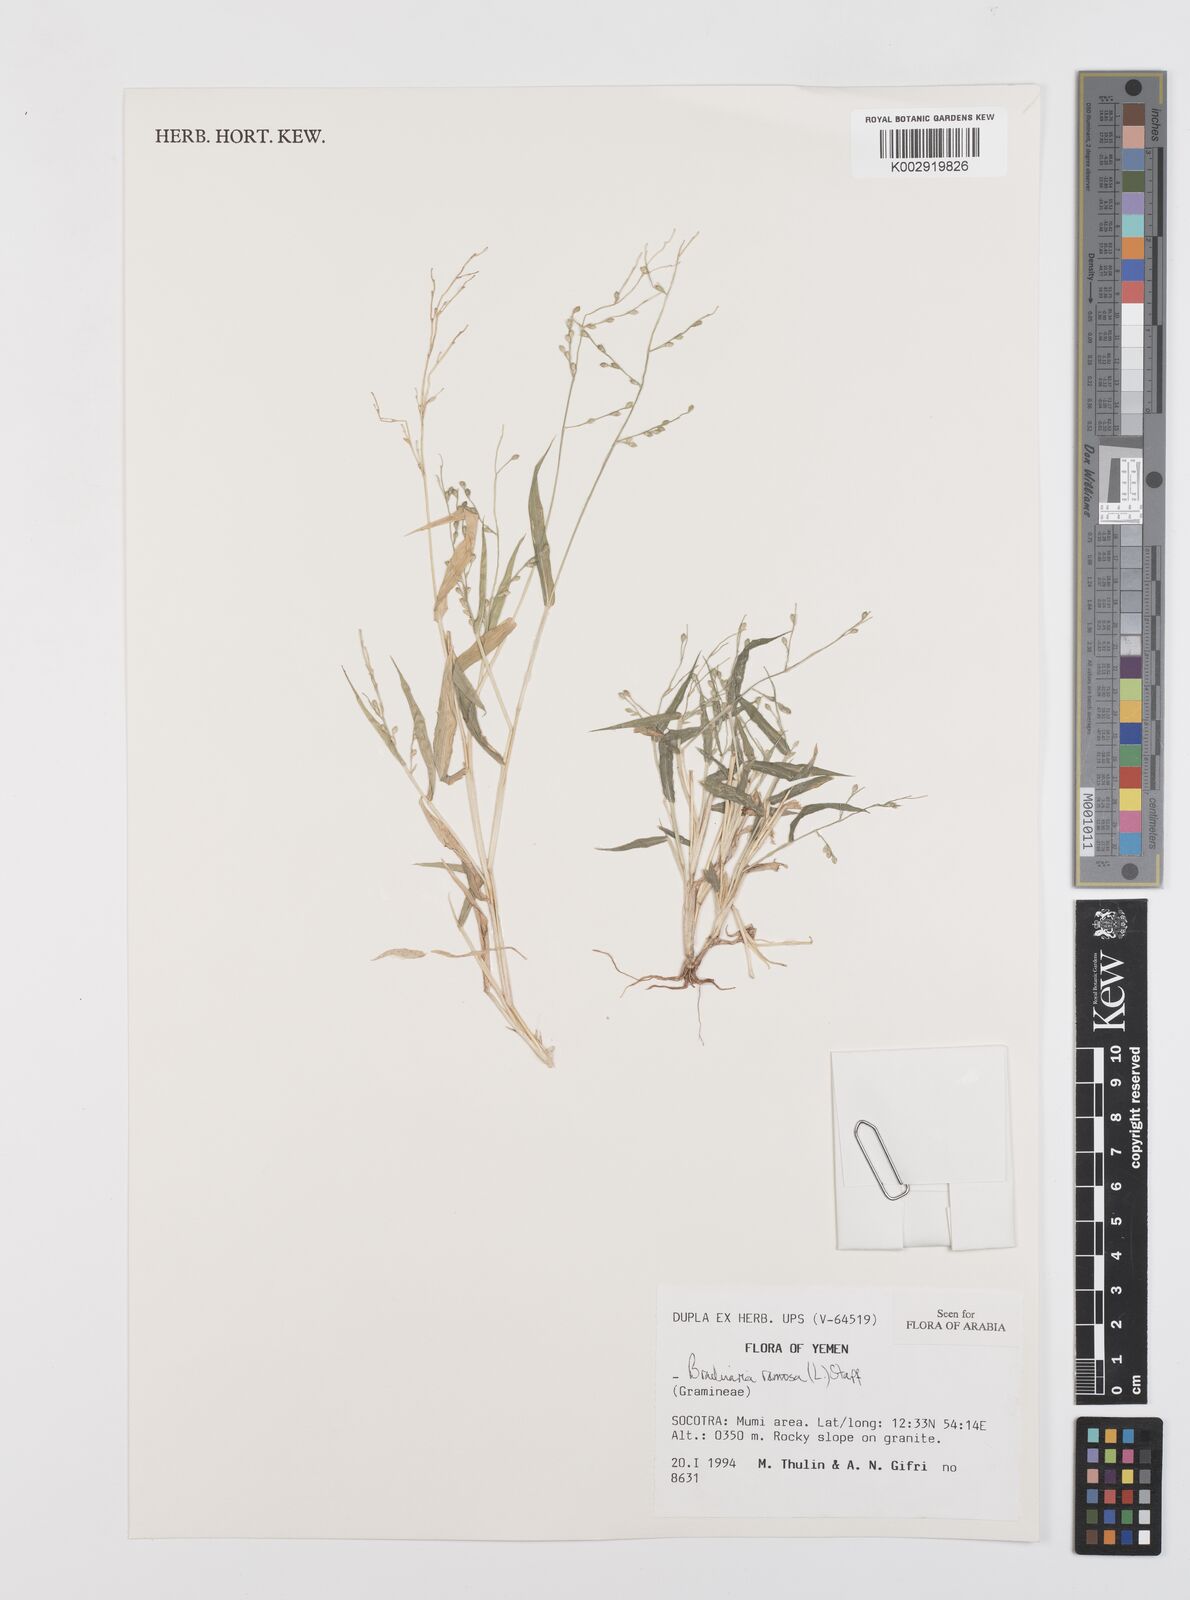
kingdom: Plantae
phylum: Tracheophyta
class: Liliopsida
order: Poales
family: Poaceae
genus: Urochloa
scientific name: Urochloa ramosa
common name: Browntop millet
